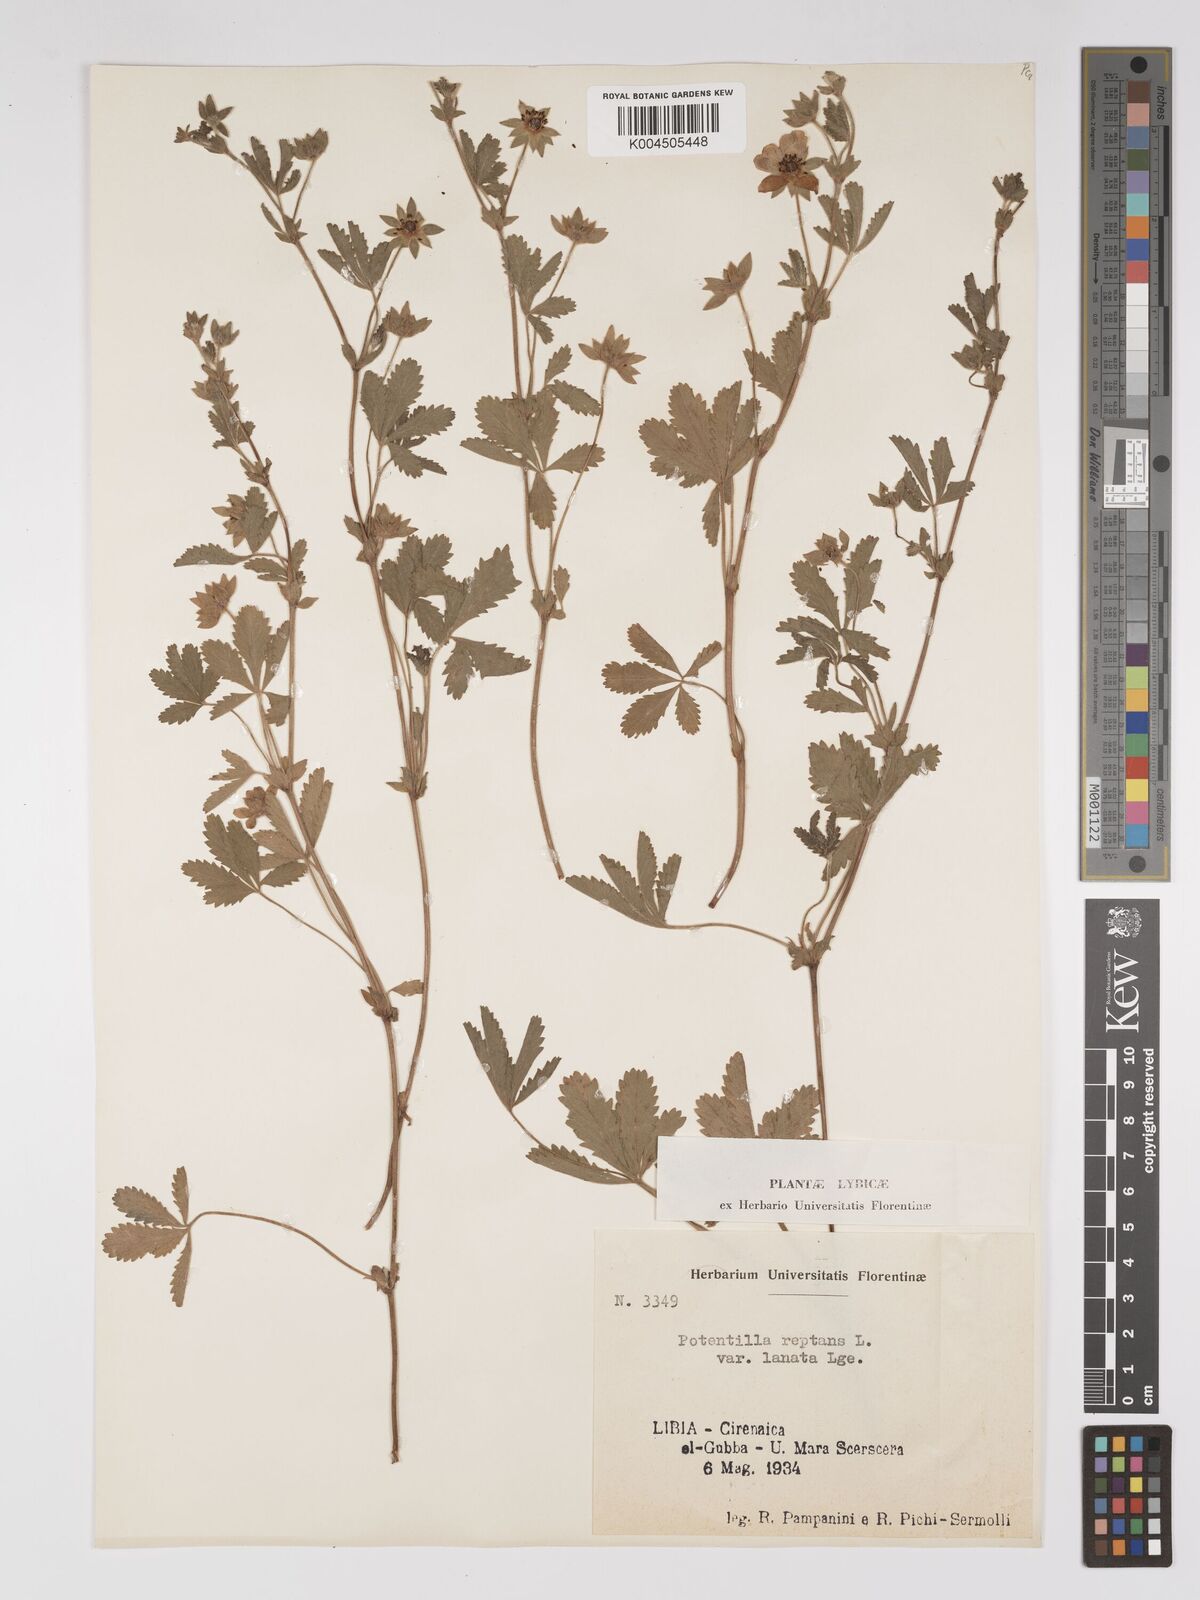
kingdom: Plantae
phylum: Tracheophyta
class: Magnoliopsida
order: Rosales
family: Rosaceae
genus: Potentilla
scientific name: Potentilla reptans
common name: Creeping cinquefoil
